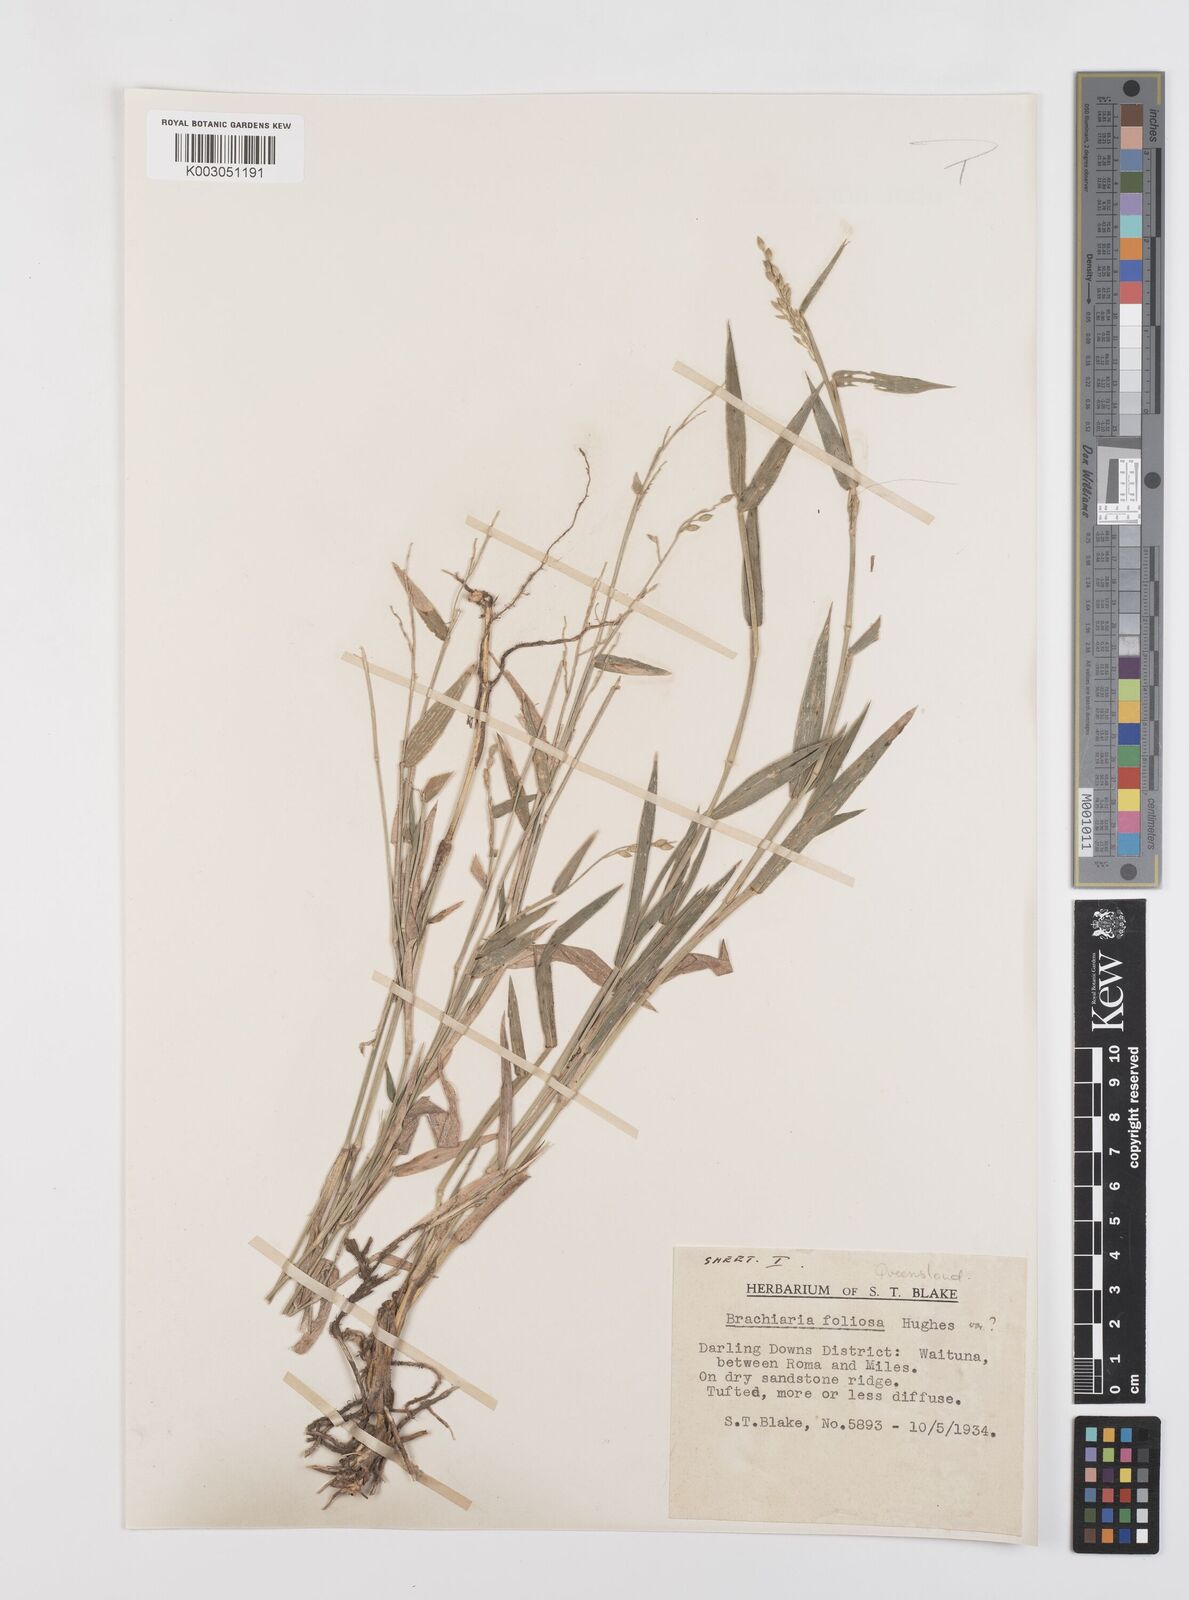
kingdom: Plantae
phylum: Tracheophyta
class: Liliopsida
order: Poales
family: Poaceae
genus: Urochloa
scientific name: Urochloa foliosa
